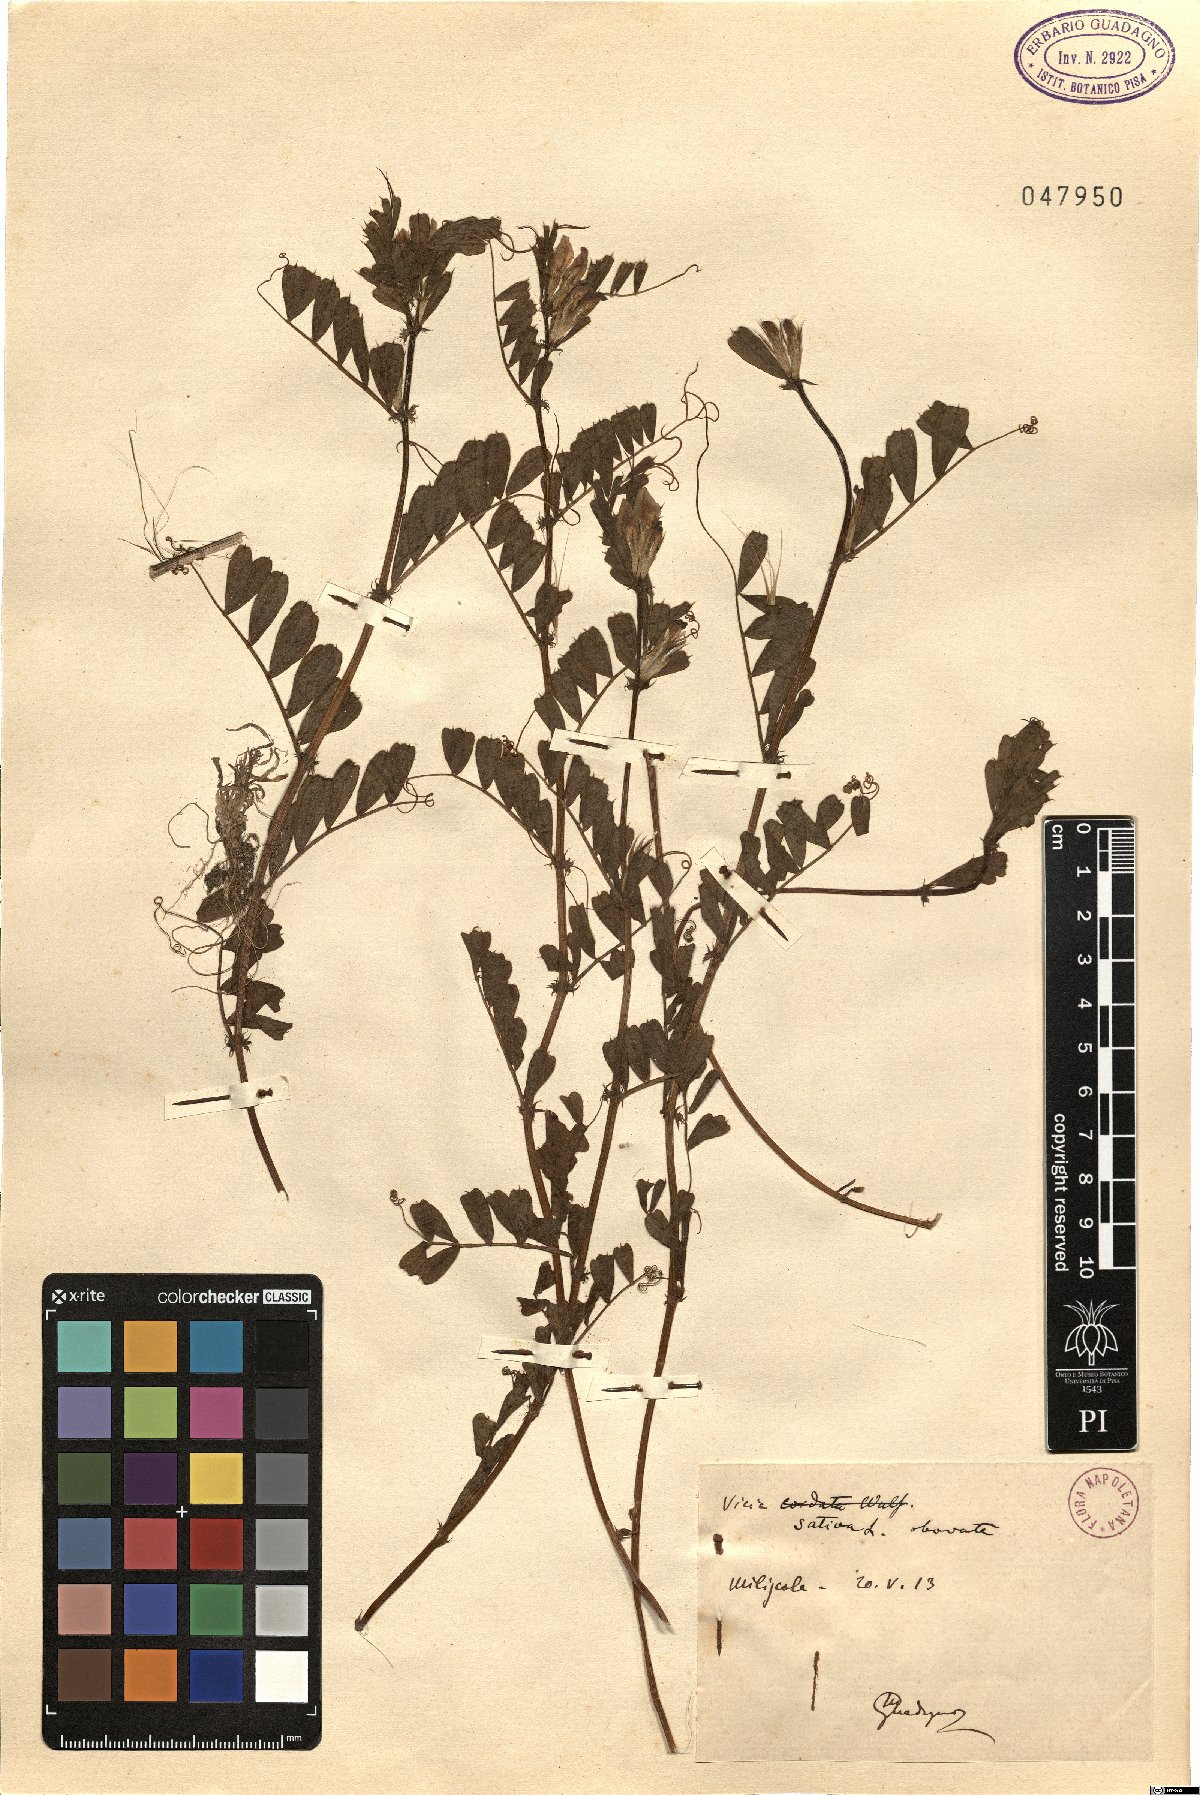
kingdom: Plantae
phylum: Tracheophyta
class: Magnoliopsida
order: Fabales
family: Fabaceae
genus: Vicia
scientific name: Vicia sativa
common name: Garden vetch
